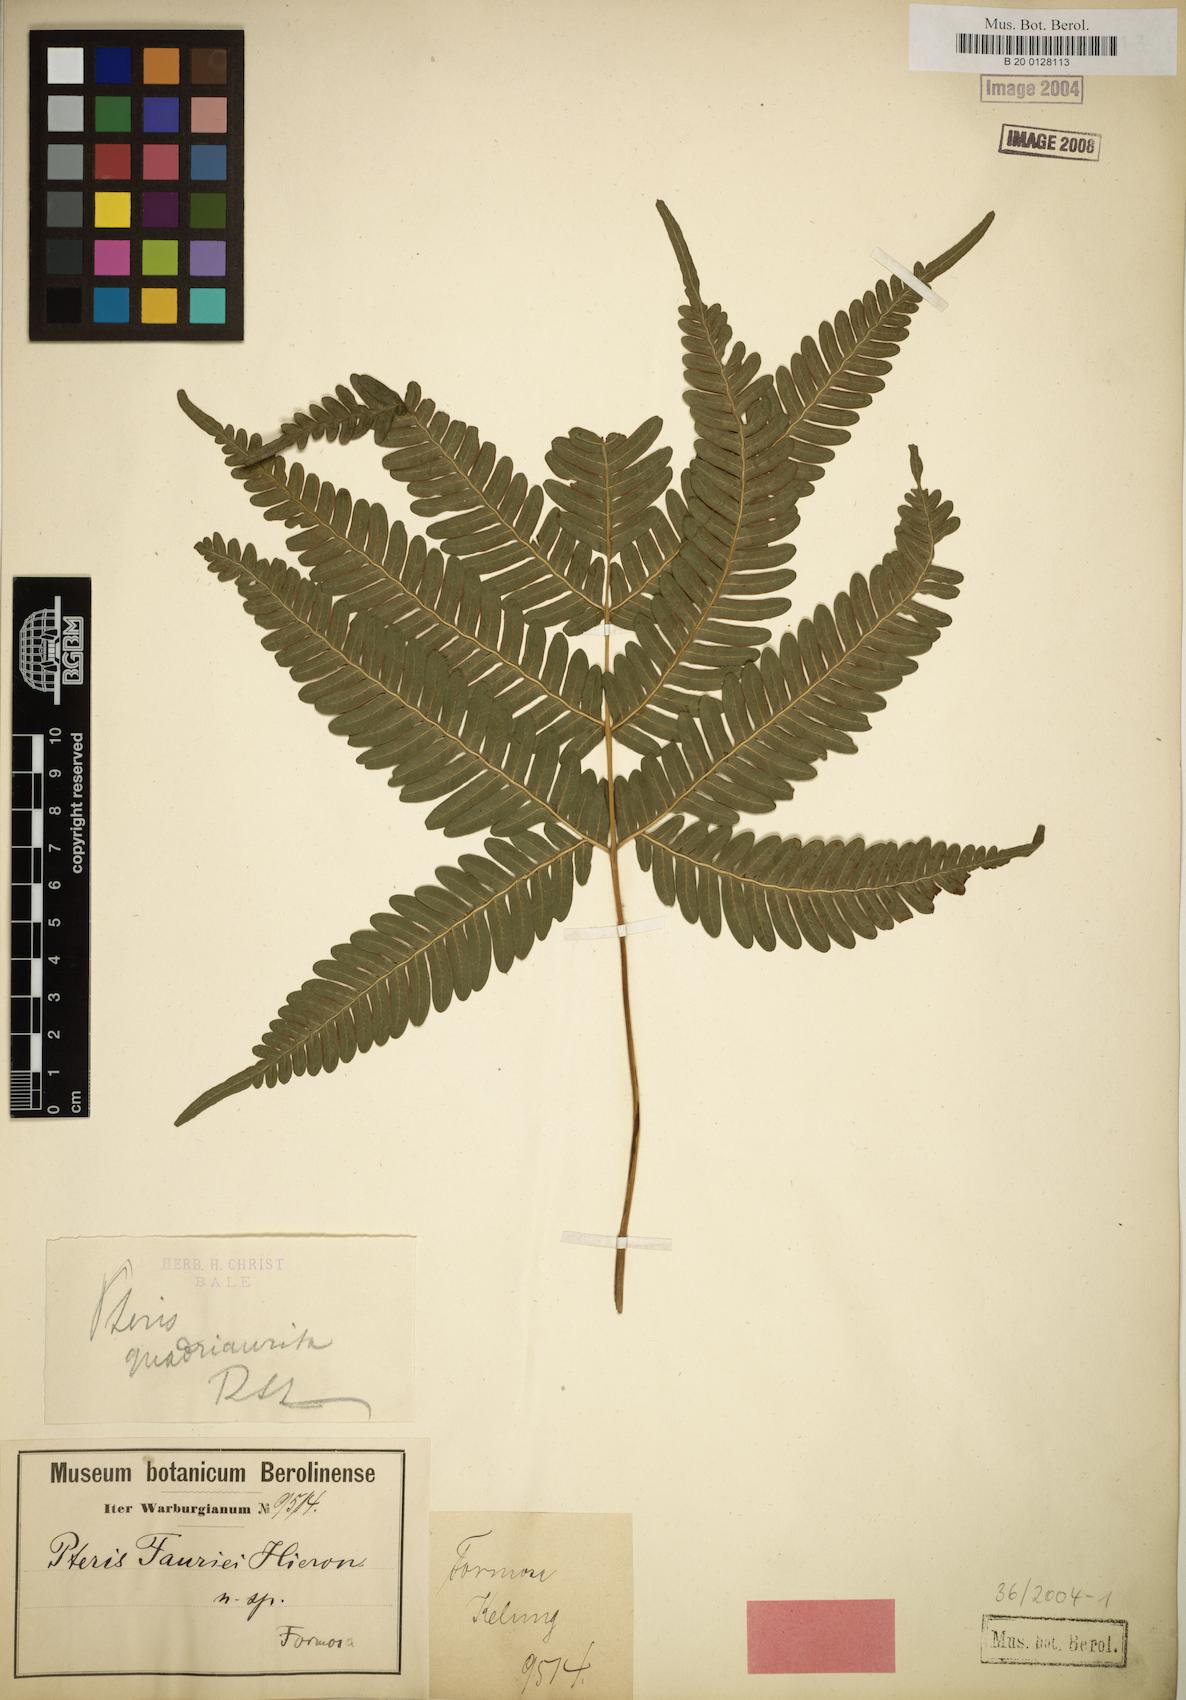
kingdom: Plantae
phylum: Tracheophyta
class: Polypodiopsida
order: Polypodiales
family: Pteridaceae
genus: Pteris
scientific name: Pteris fauriei
